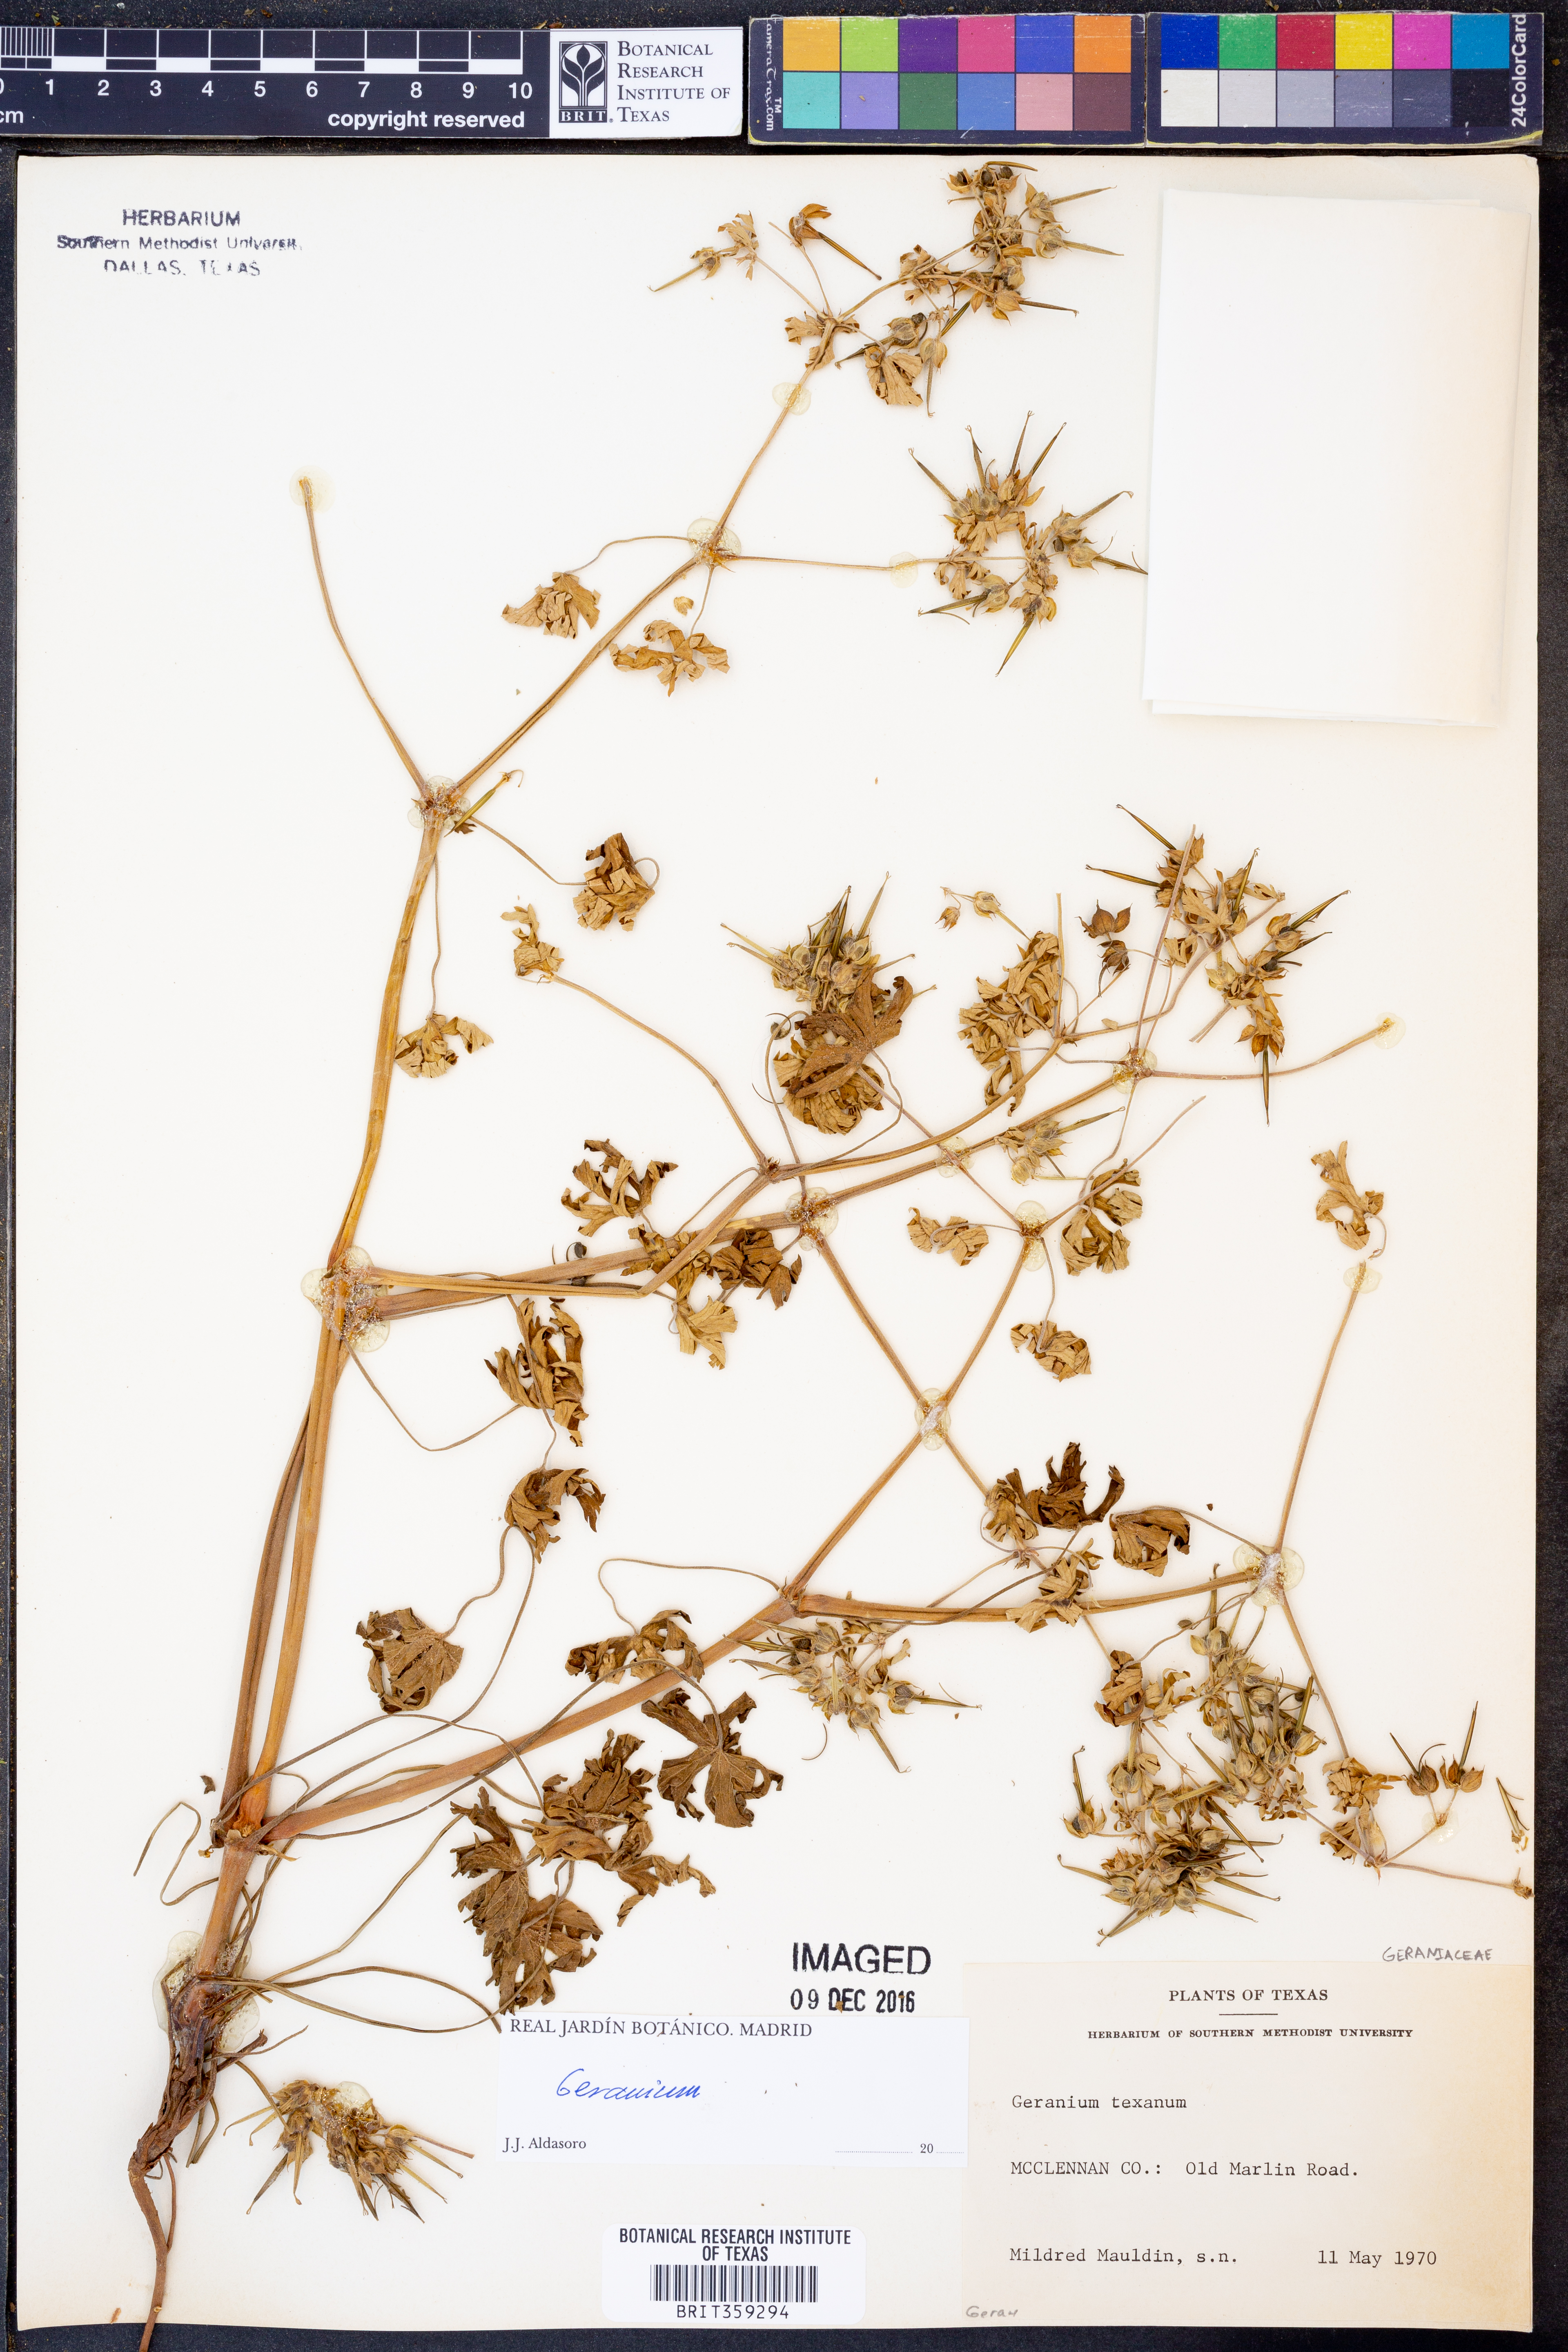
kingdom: Plantae
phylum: Tracheophyta
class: Magnoliopsida
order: Geraniales
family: Geraniaceae
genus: Geranium
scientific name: Geranium texanum
